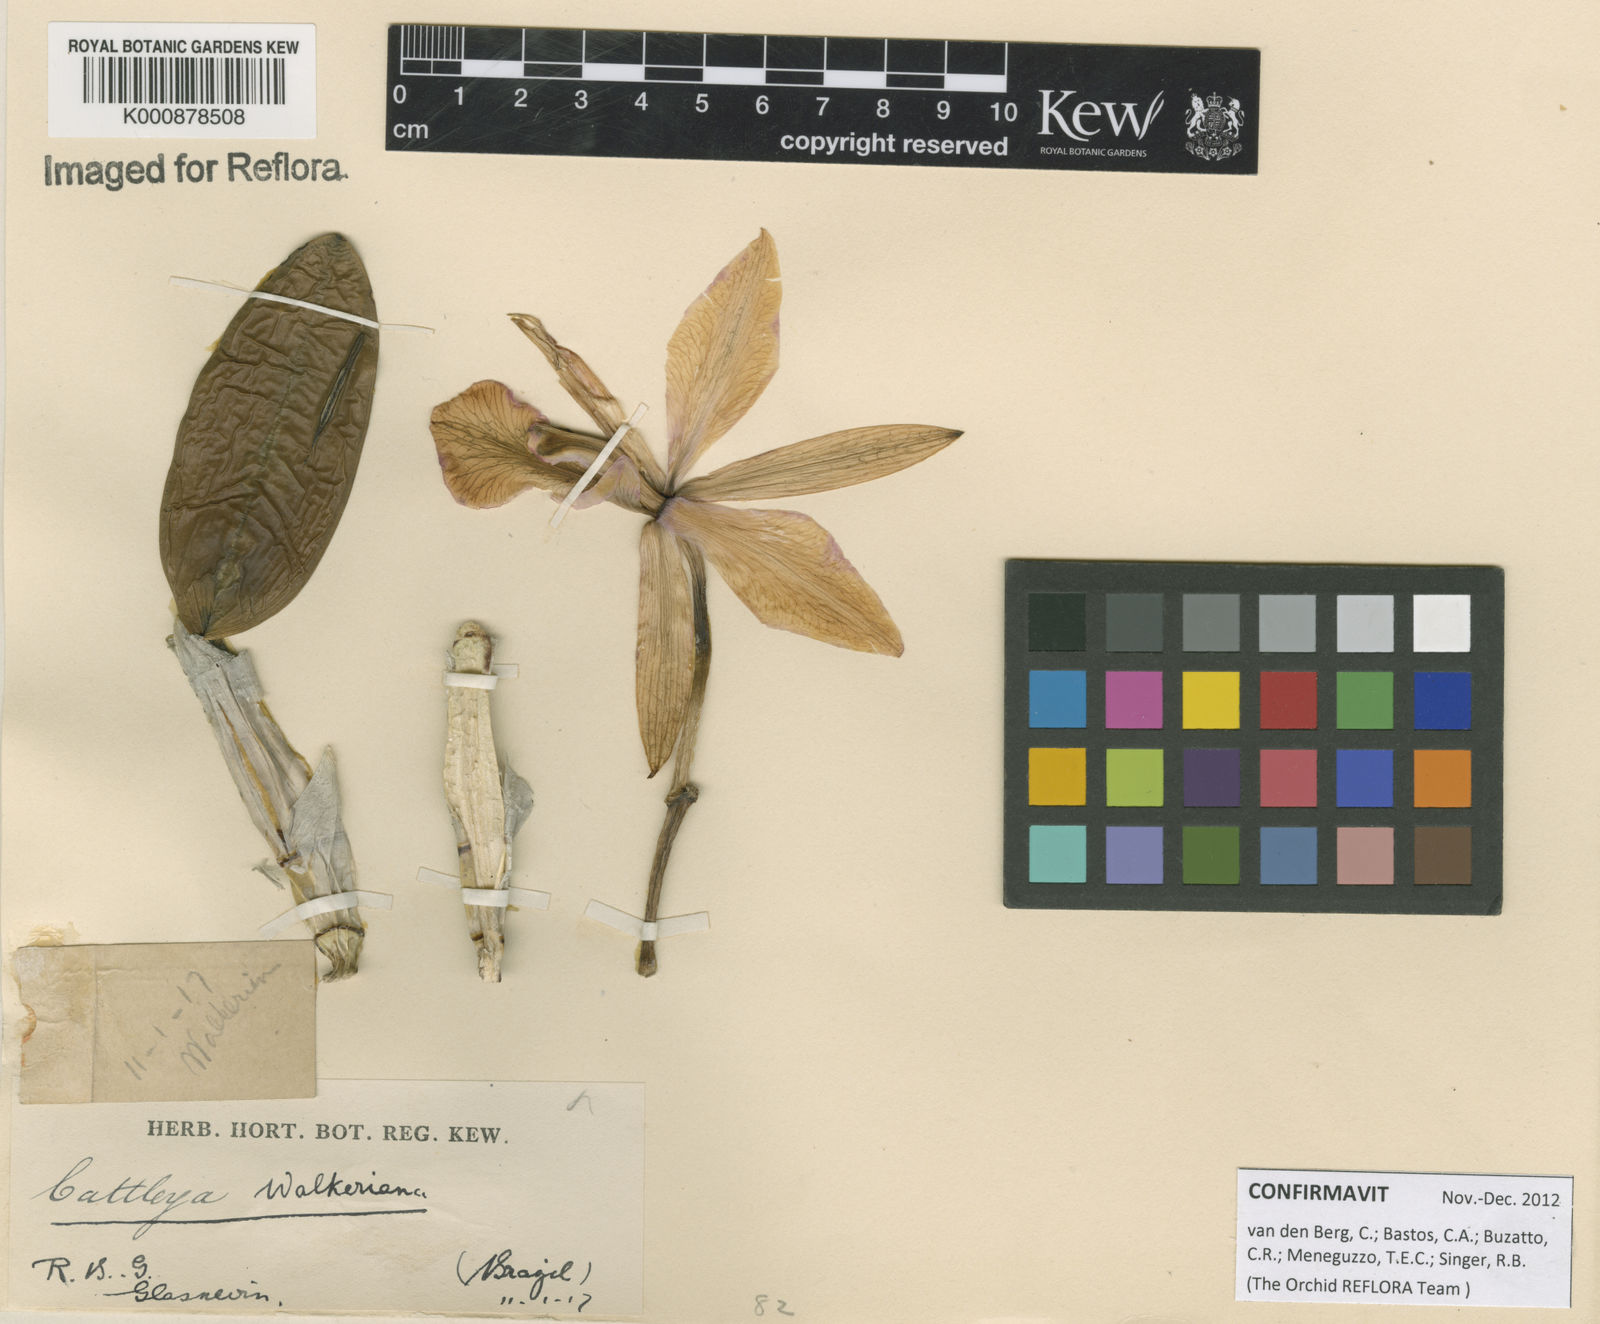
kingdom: Plantae
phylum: Tracheophyta
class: Liliopsida
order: Asparagales
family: Orchidaceae
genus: Cattleya
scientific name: Cattleya walkeriana
